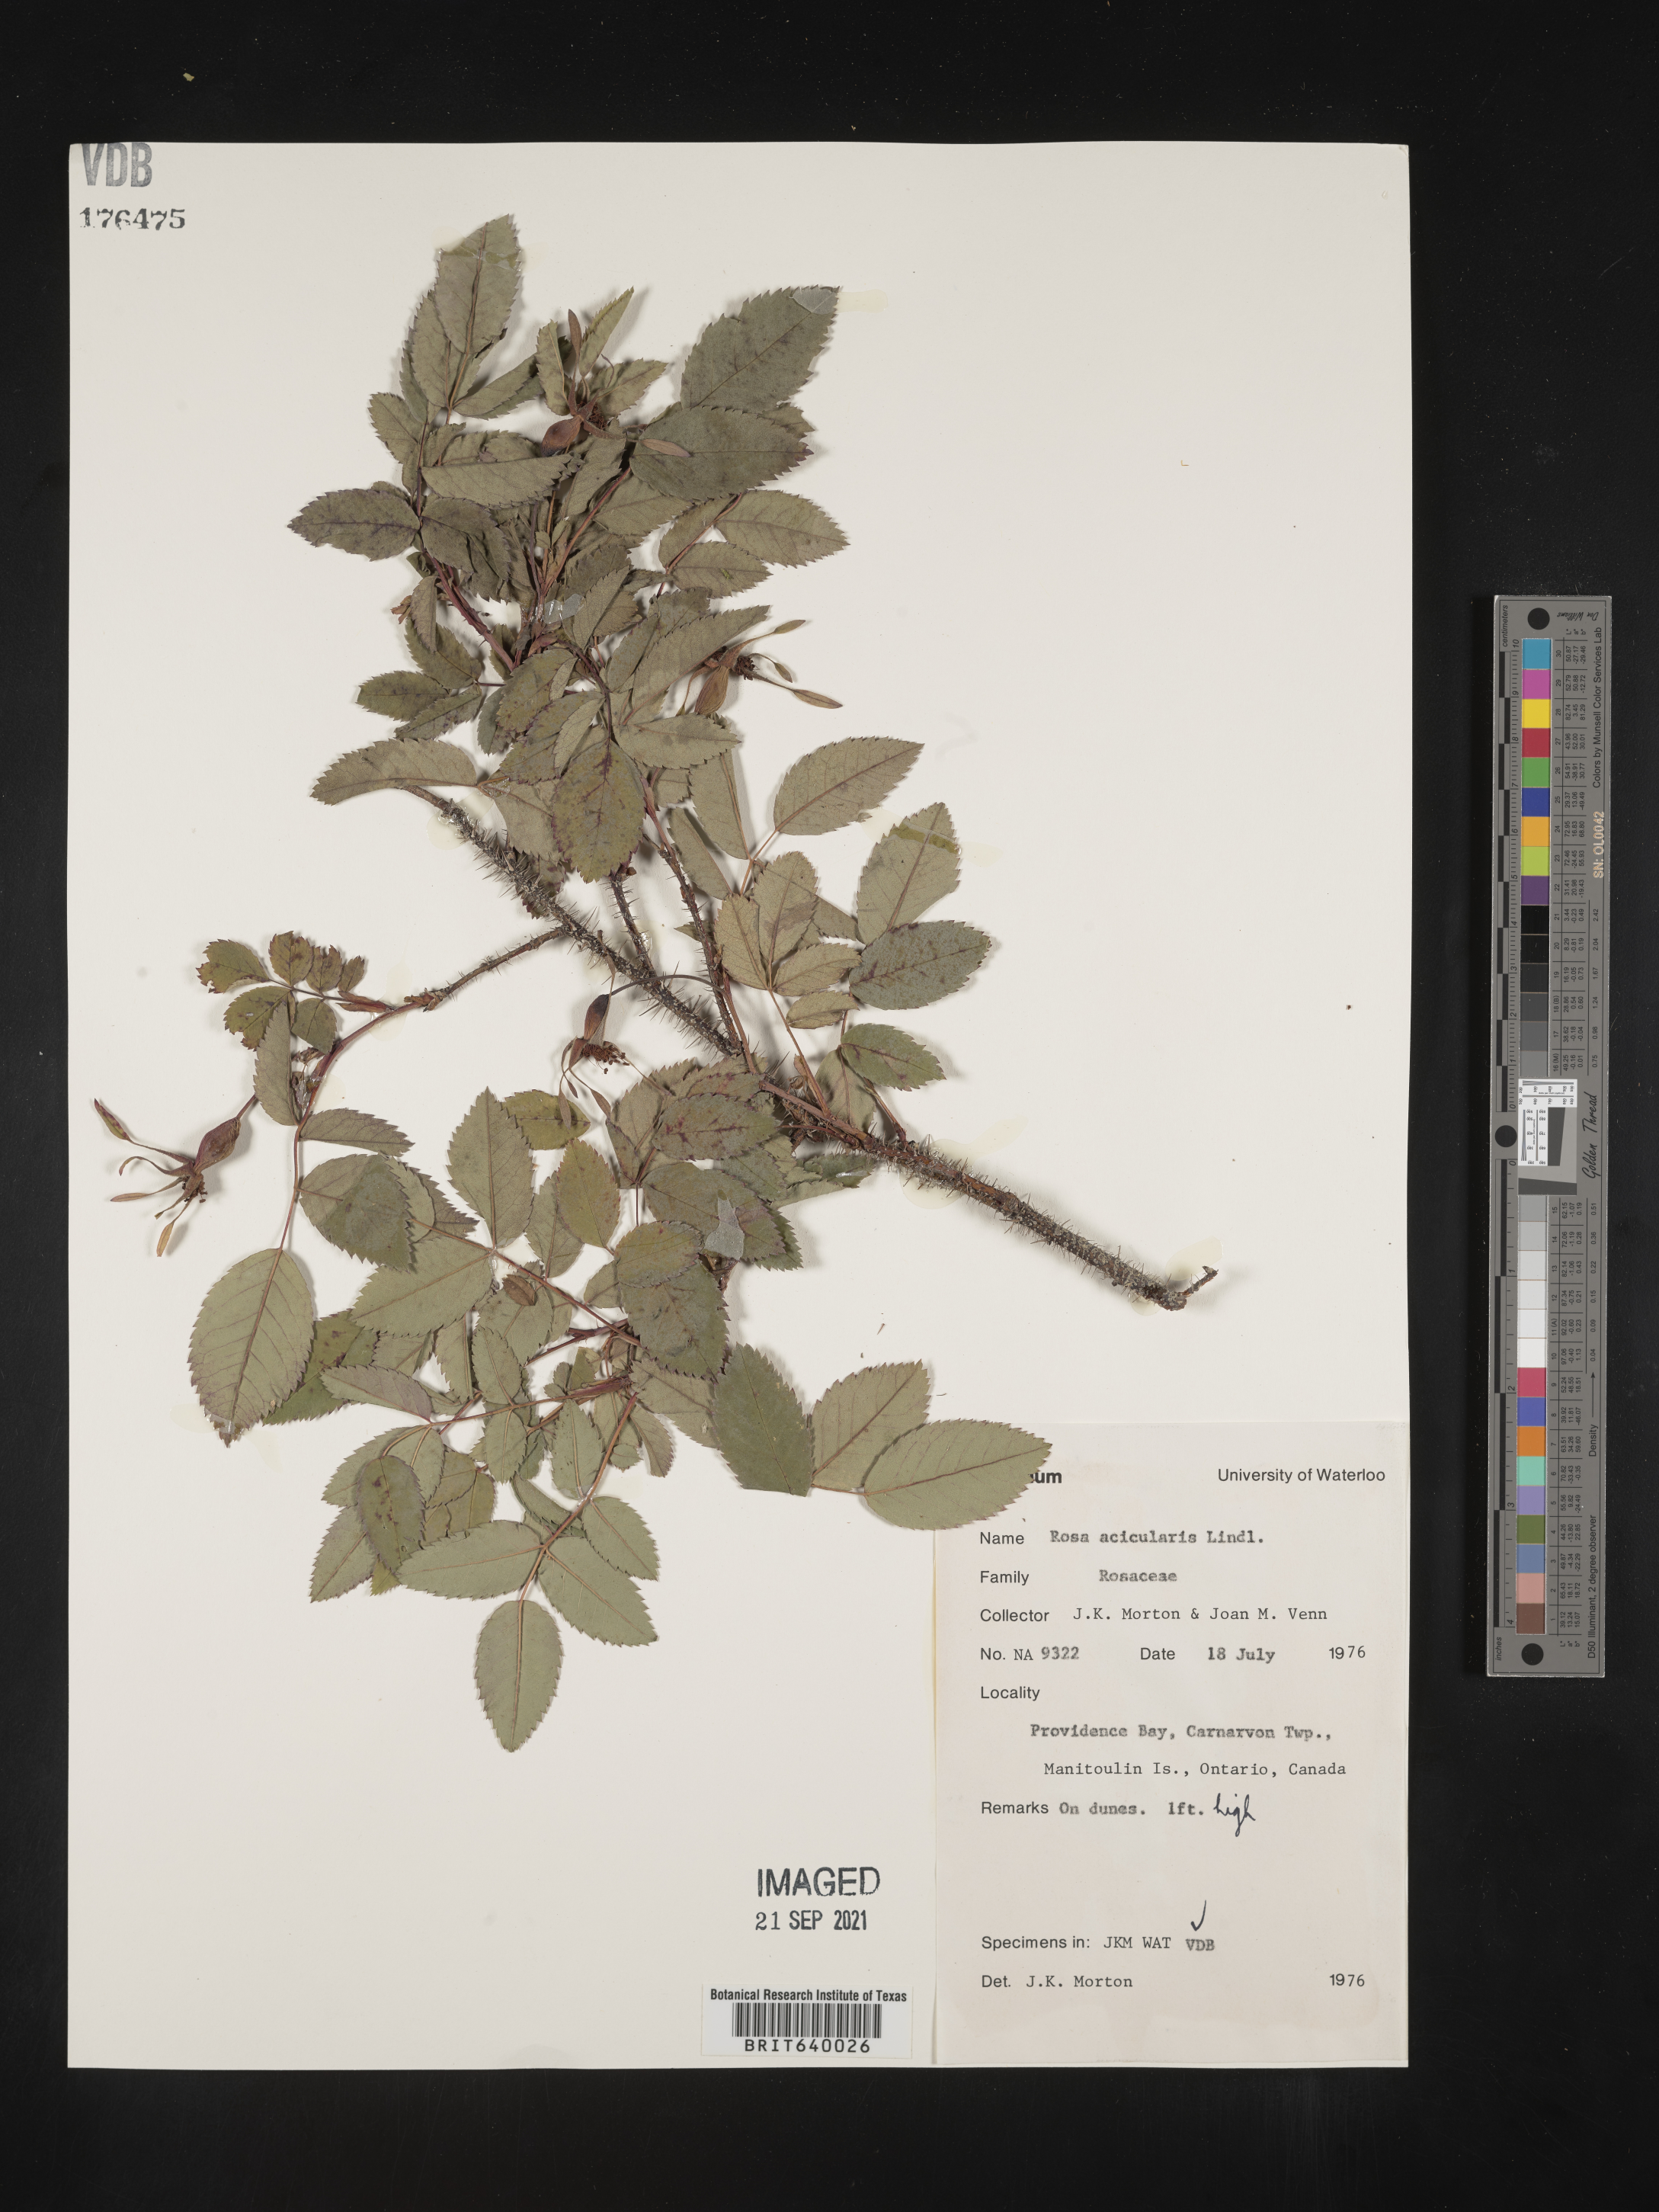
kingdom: Plantae
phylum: Tracheophyta
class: Magnoliopsida
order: Rosales
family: Rosaceae
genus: Rosa
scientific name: Rosa
